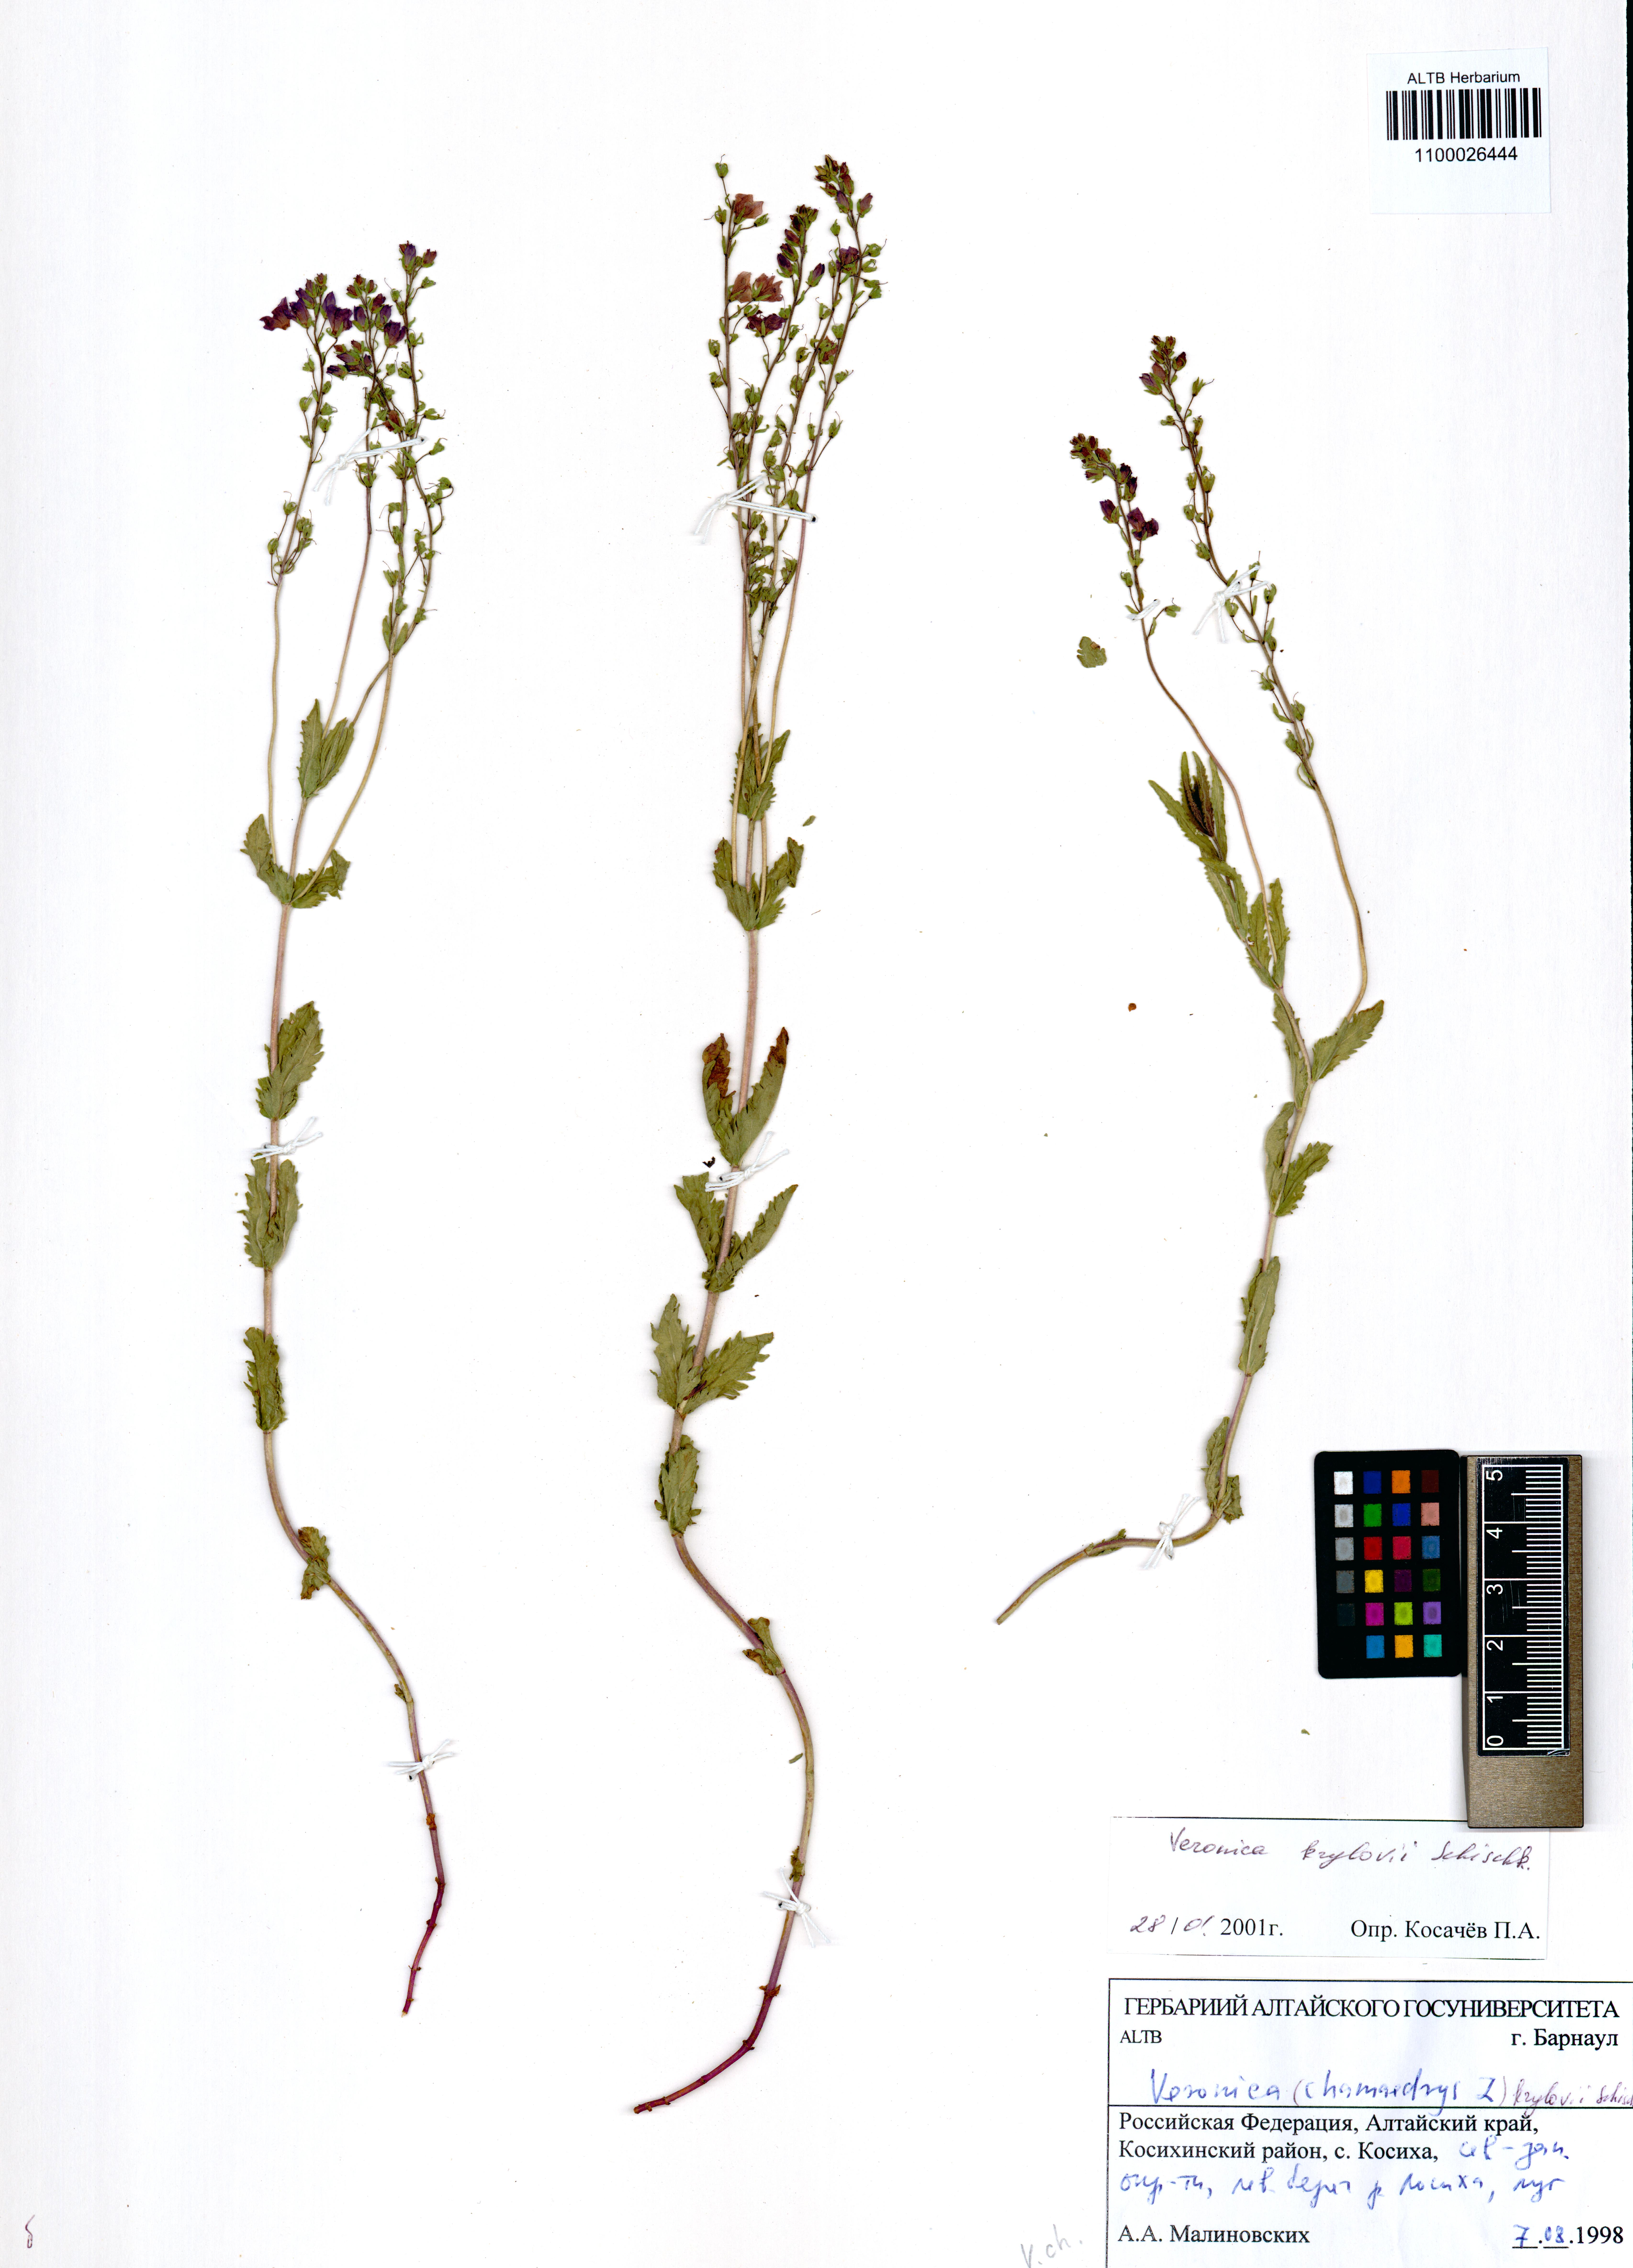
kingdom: Plantae
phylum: Tracheophyta
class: Magnoliopsida
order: Lamiales
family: Plantaginaceae
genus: Veronica
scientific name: Veronica krylovii
